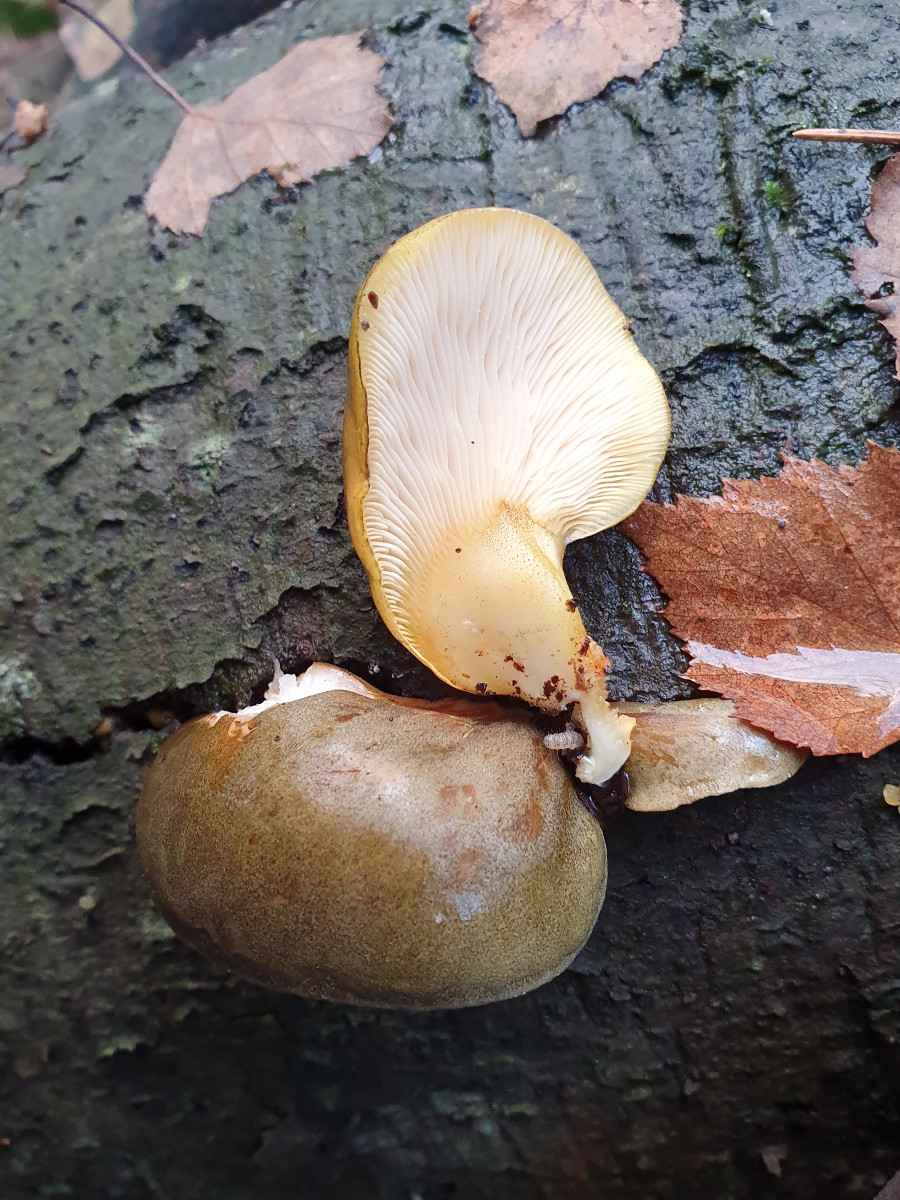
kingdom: Fungi
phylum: Basidiomycota
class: Agaricomycetes
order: Agaricales
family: Sarcomyxaceae
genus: Sarcomyxa
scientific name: Sarcomyxa serotina
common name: gummihat
